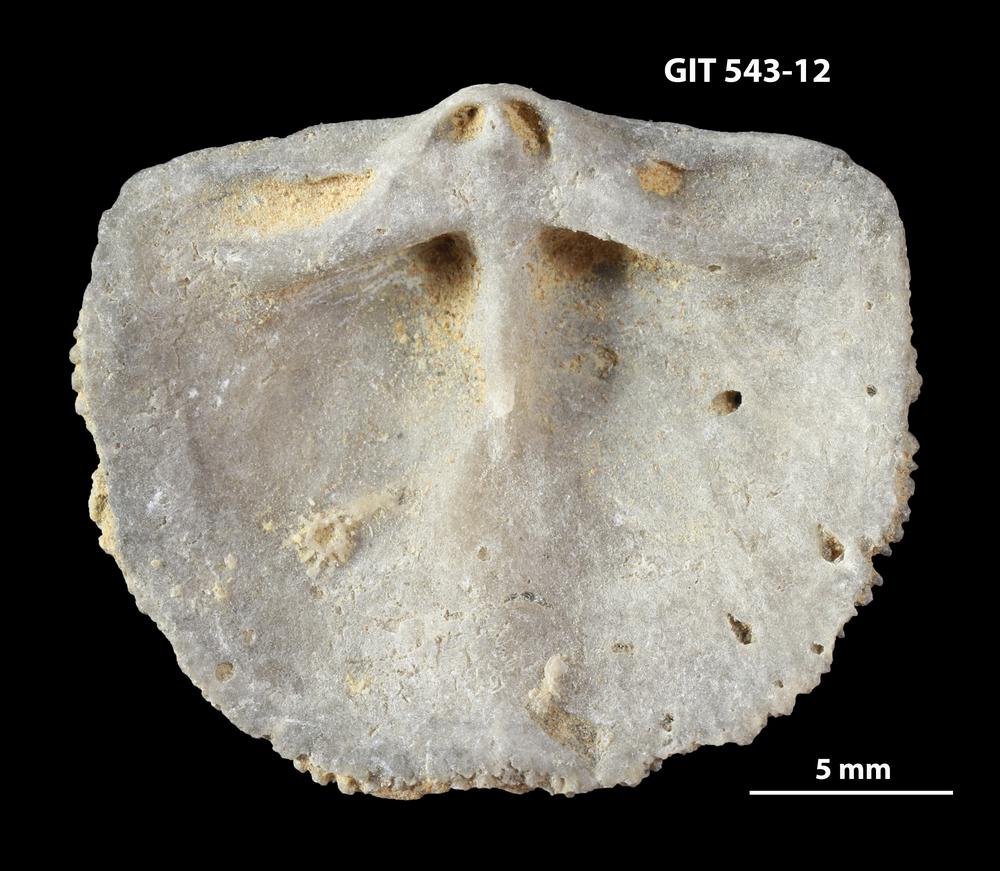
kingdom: Animalia
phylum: Brachiopoda
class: Rhynchonellata
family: Clitambonitidae
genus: Clitambonites
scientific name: Clitambonites
